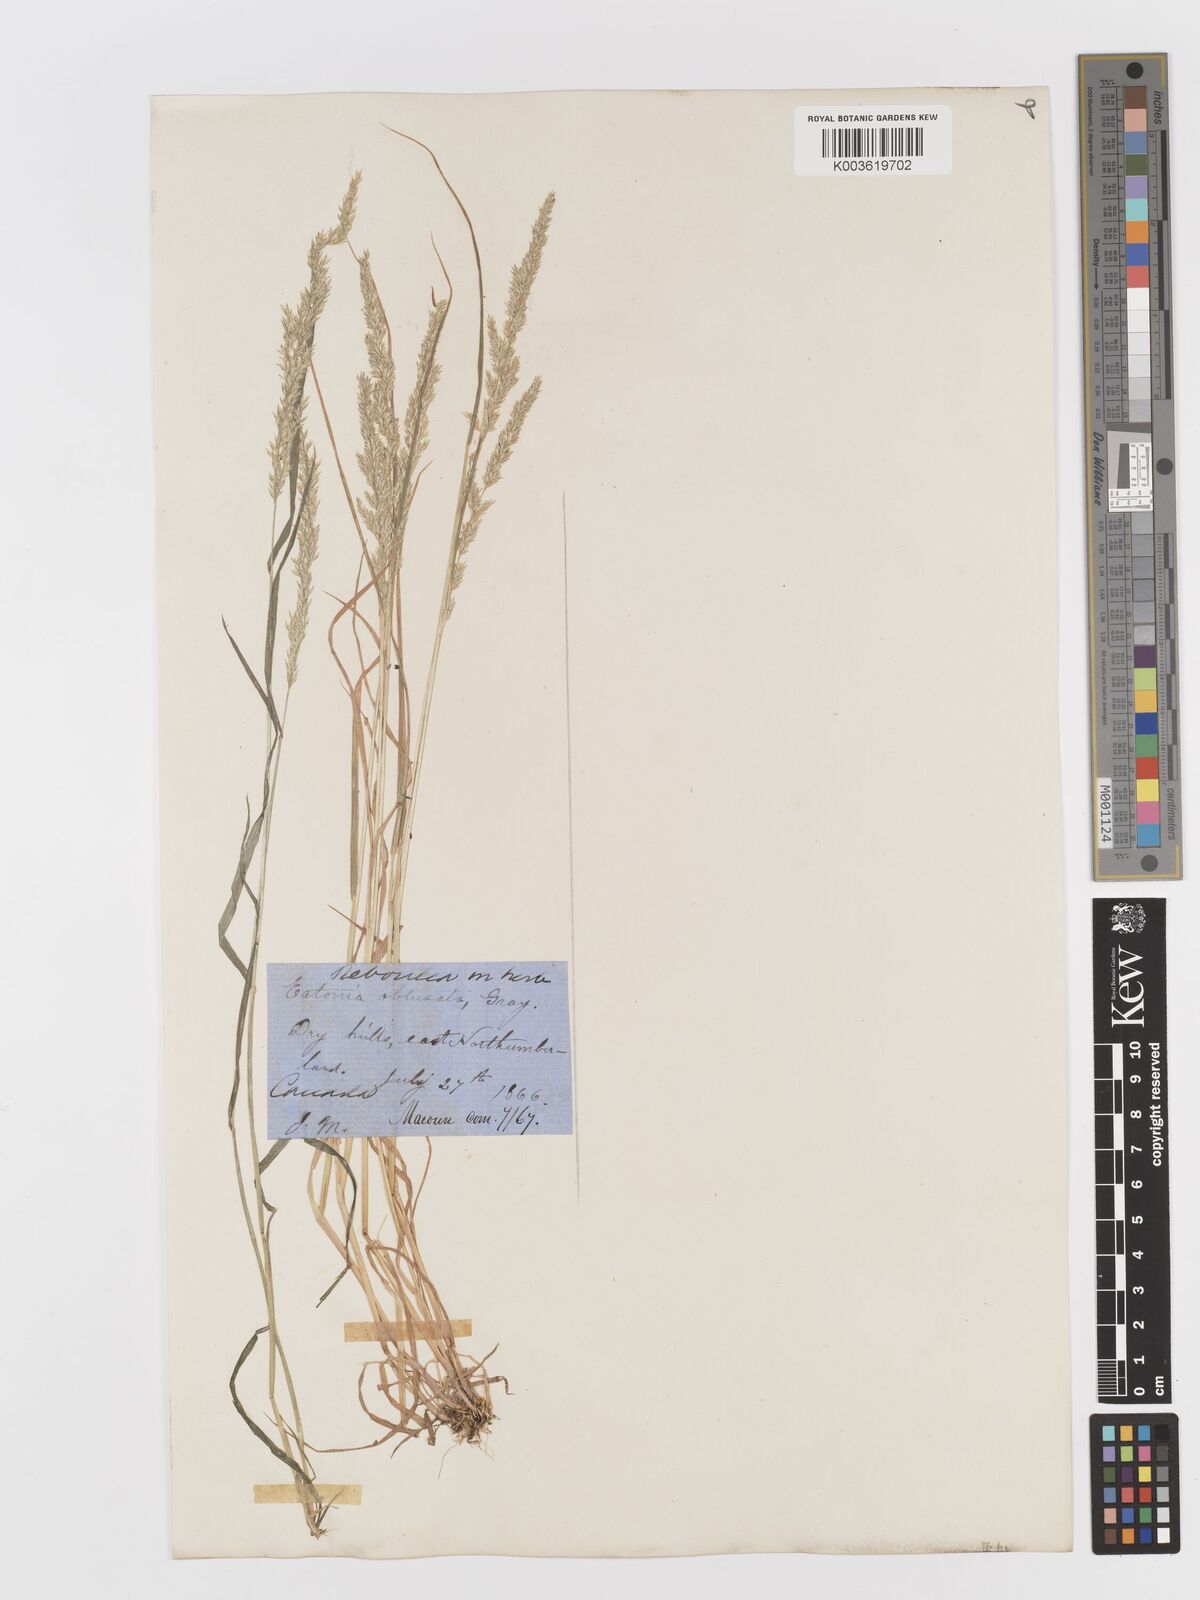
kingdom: Plantae
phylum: Tracheophyta
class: Liliopsida
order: Poales
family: Poaceae
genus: Sphenopholis
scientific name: Sphenopholis obtusata
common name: Prairie grass
